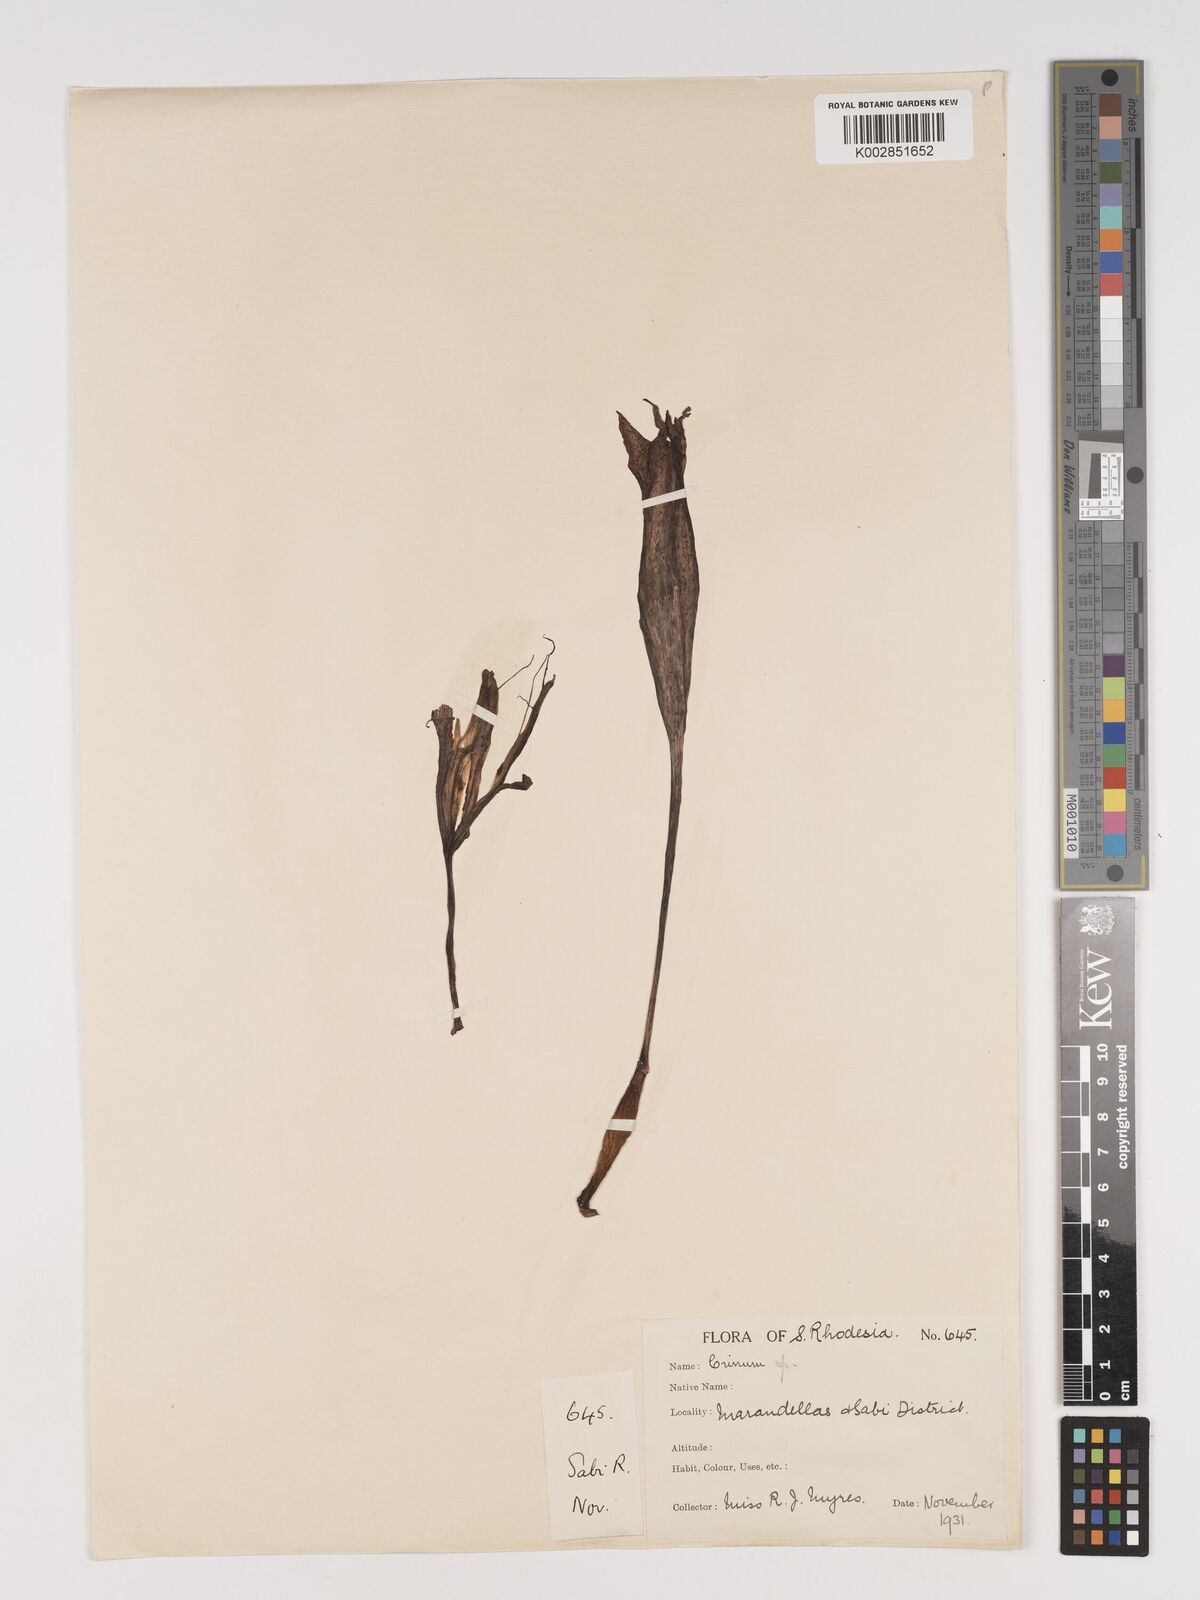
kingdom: Plantae
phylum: Tracheophyta
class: Liliopsida
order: Asparagales
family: Amaryllidaceae
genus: Crinum
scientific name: Crinum graminicola
